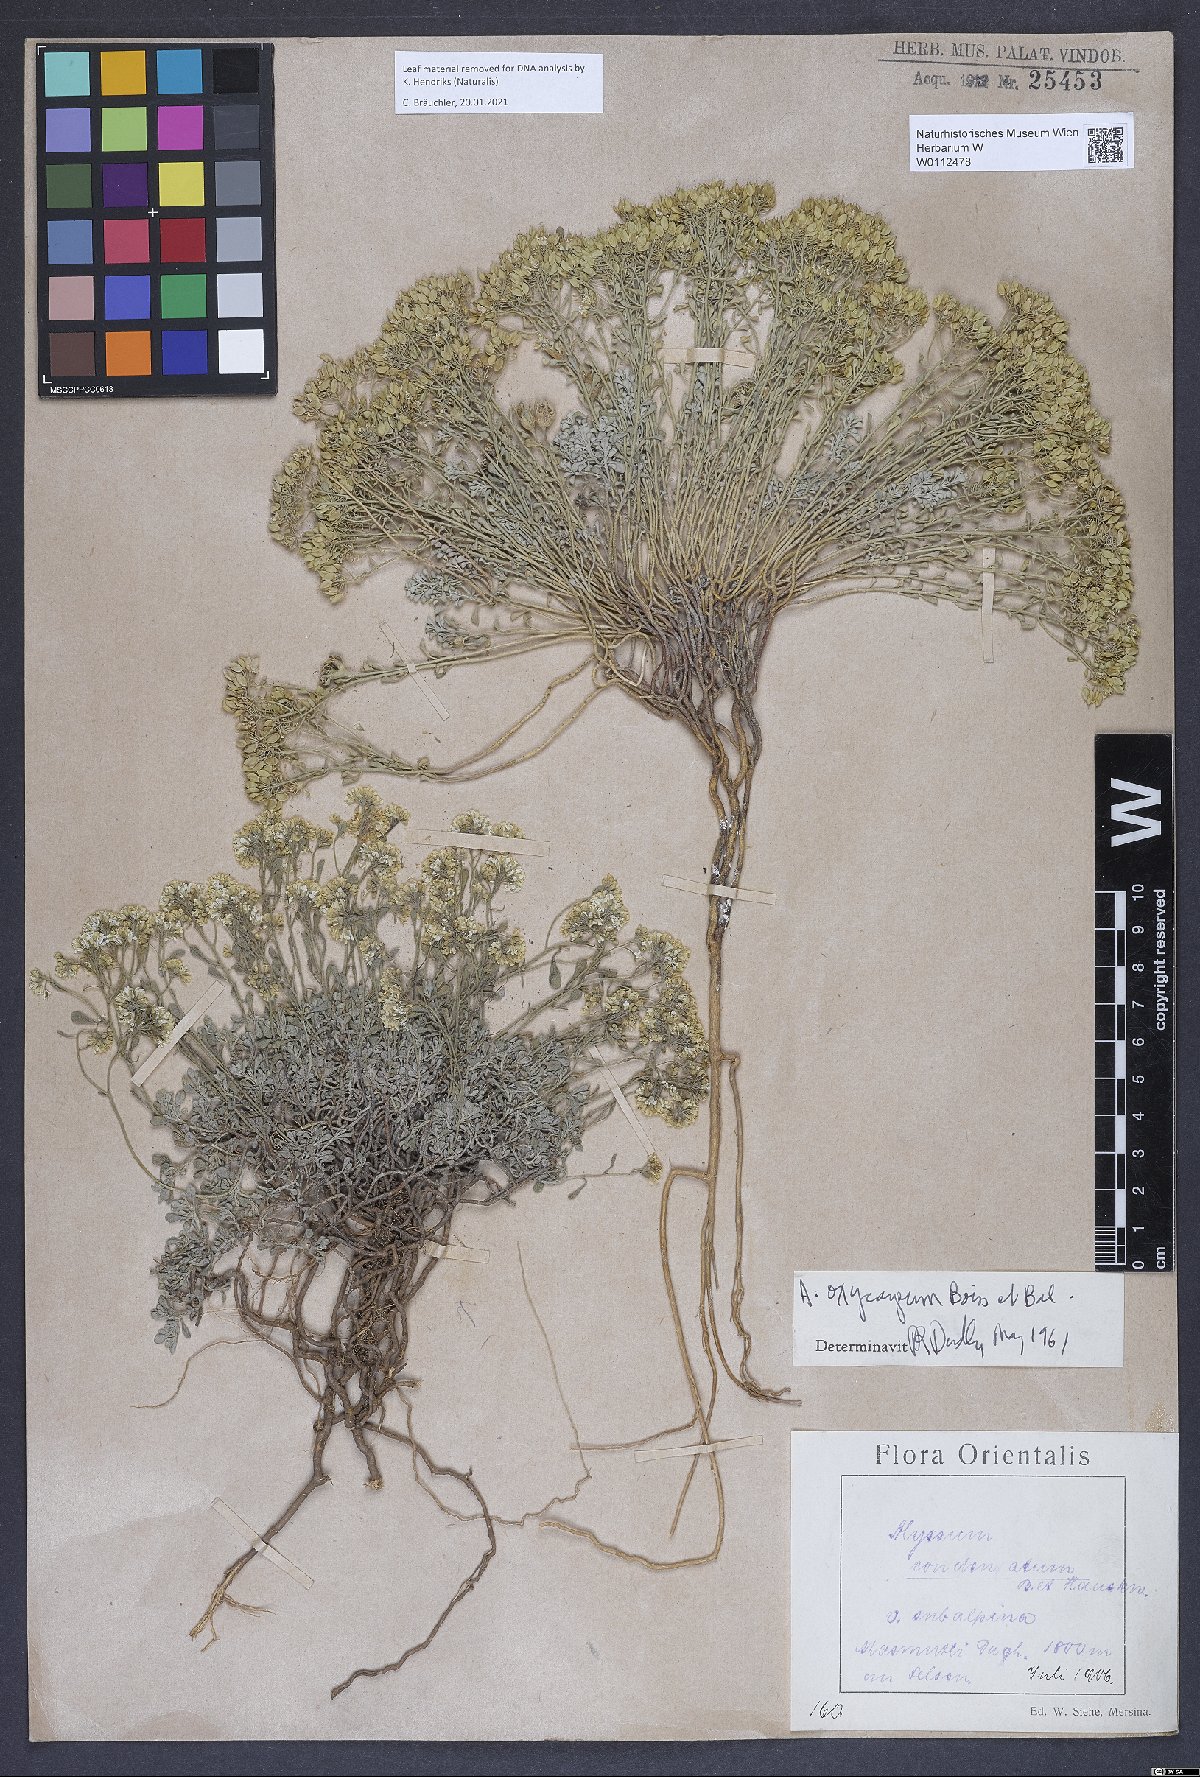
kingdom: Plantae
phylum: Tracheophyta
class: Magnoliopsida
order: Brassicales
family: Brassicaceae
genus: Odontarrhena
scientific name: Odontarrhena oxycarpa
